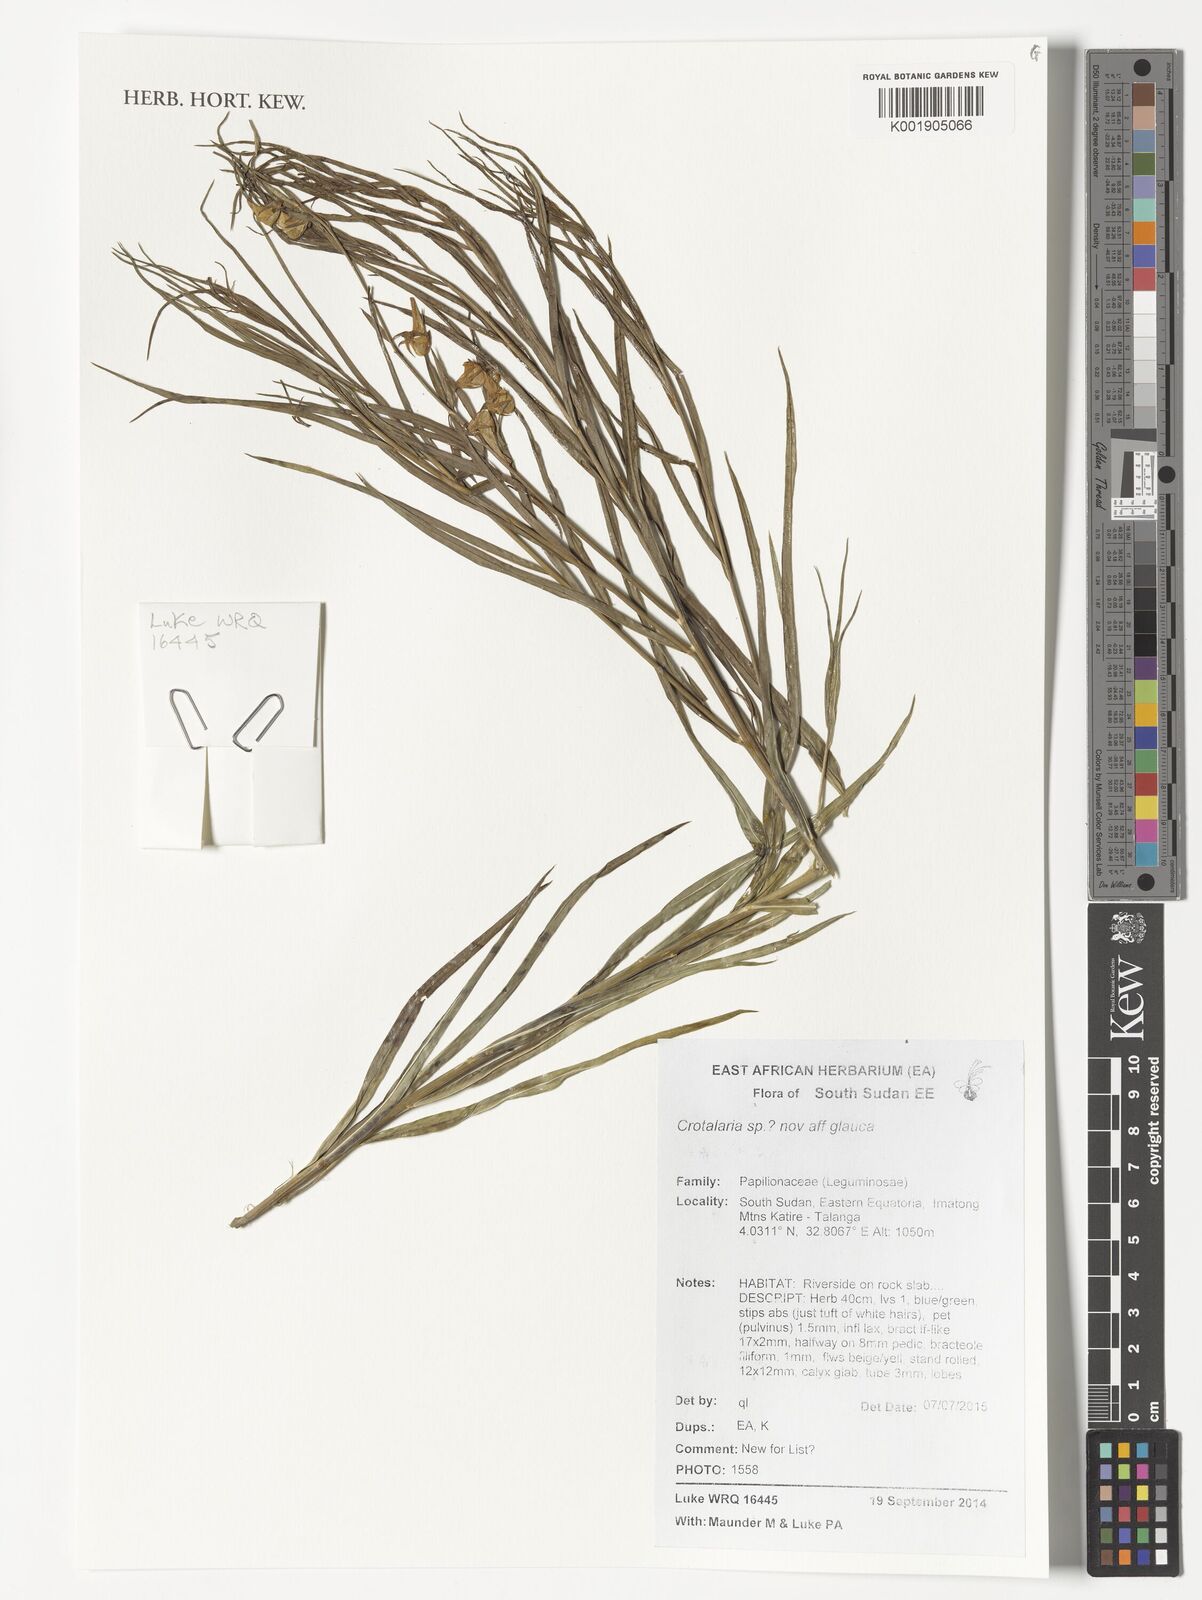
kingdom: Plantae
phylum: Tracheophyta
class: Magnoliopsida
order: Fabales
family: Fabaceae
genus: Crotalaria
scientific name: Crotalaria glauca
